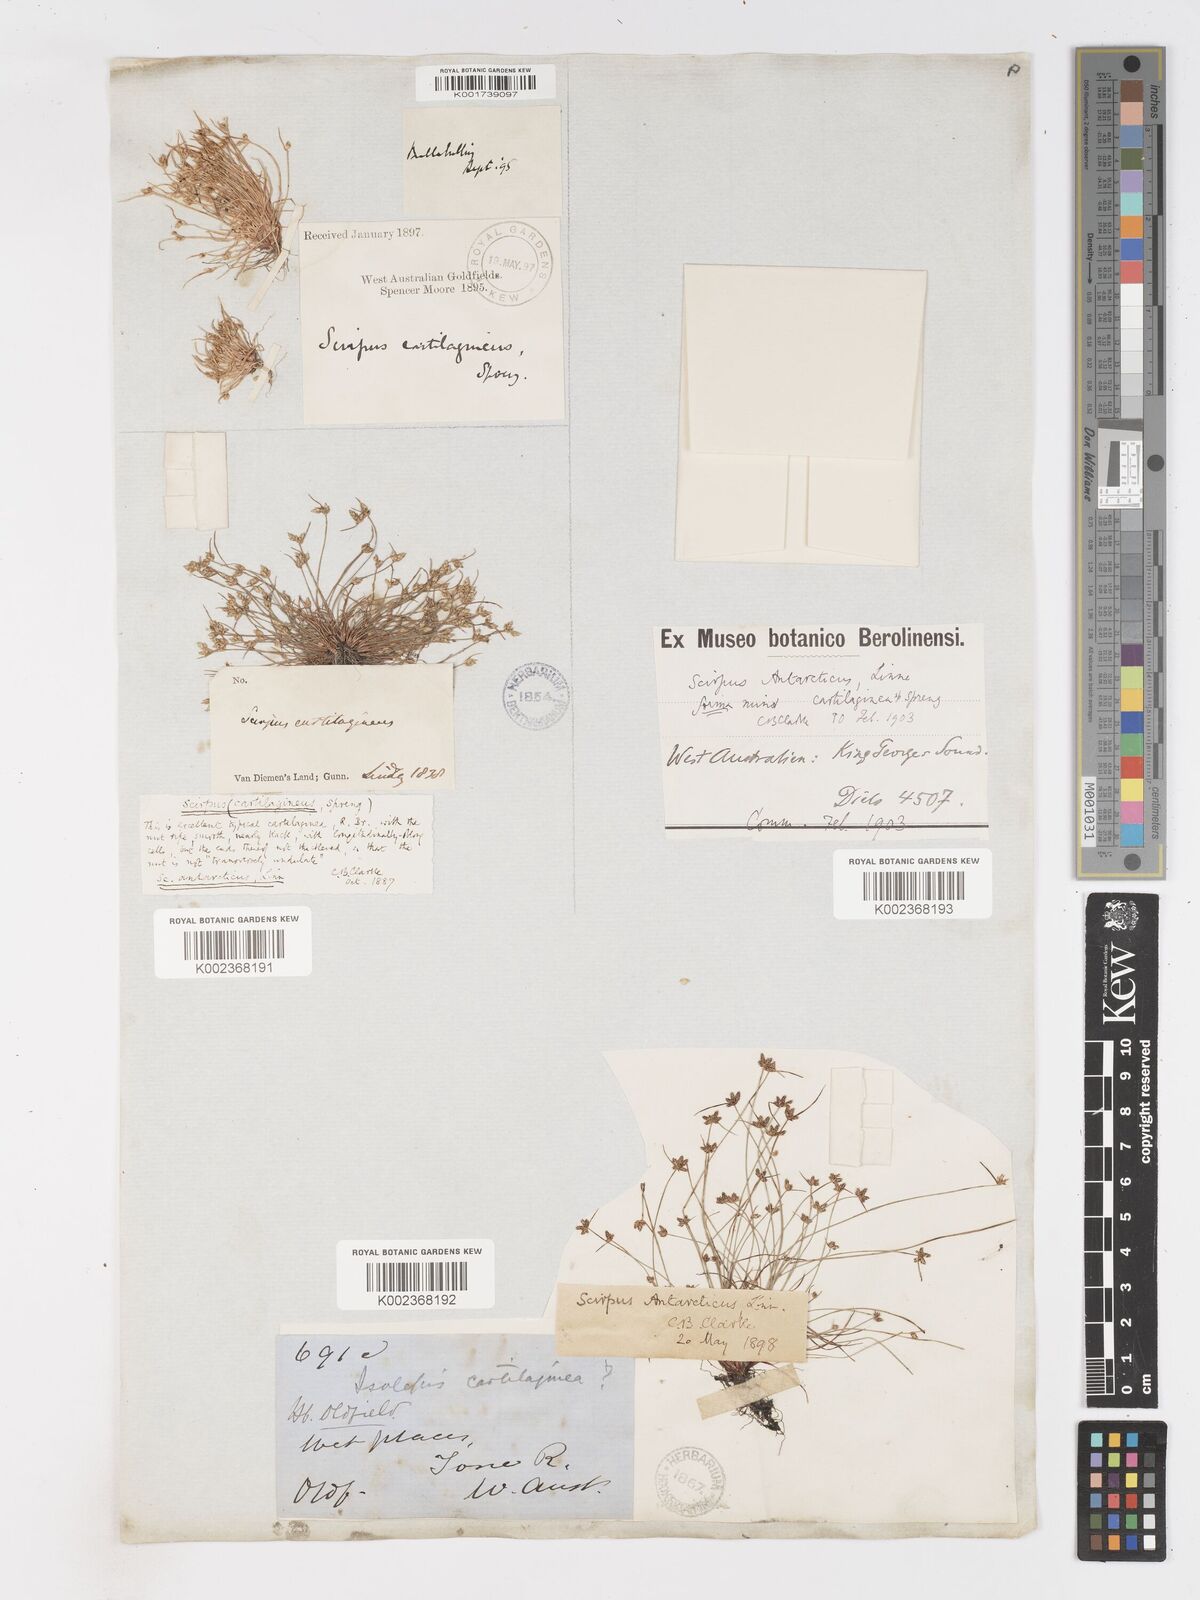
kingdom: Plantae
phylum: Tracheophyta
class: Liliopsida
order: Poales
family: Cyperaceae
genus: Isolepis
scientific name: Isolepis antarctica
